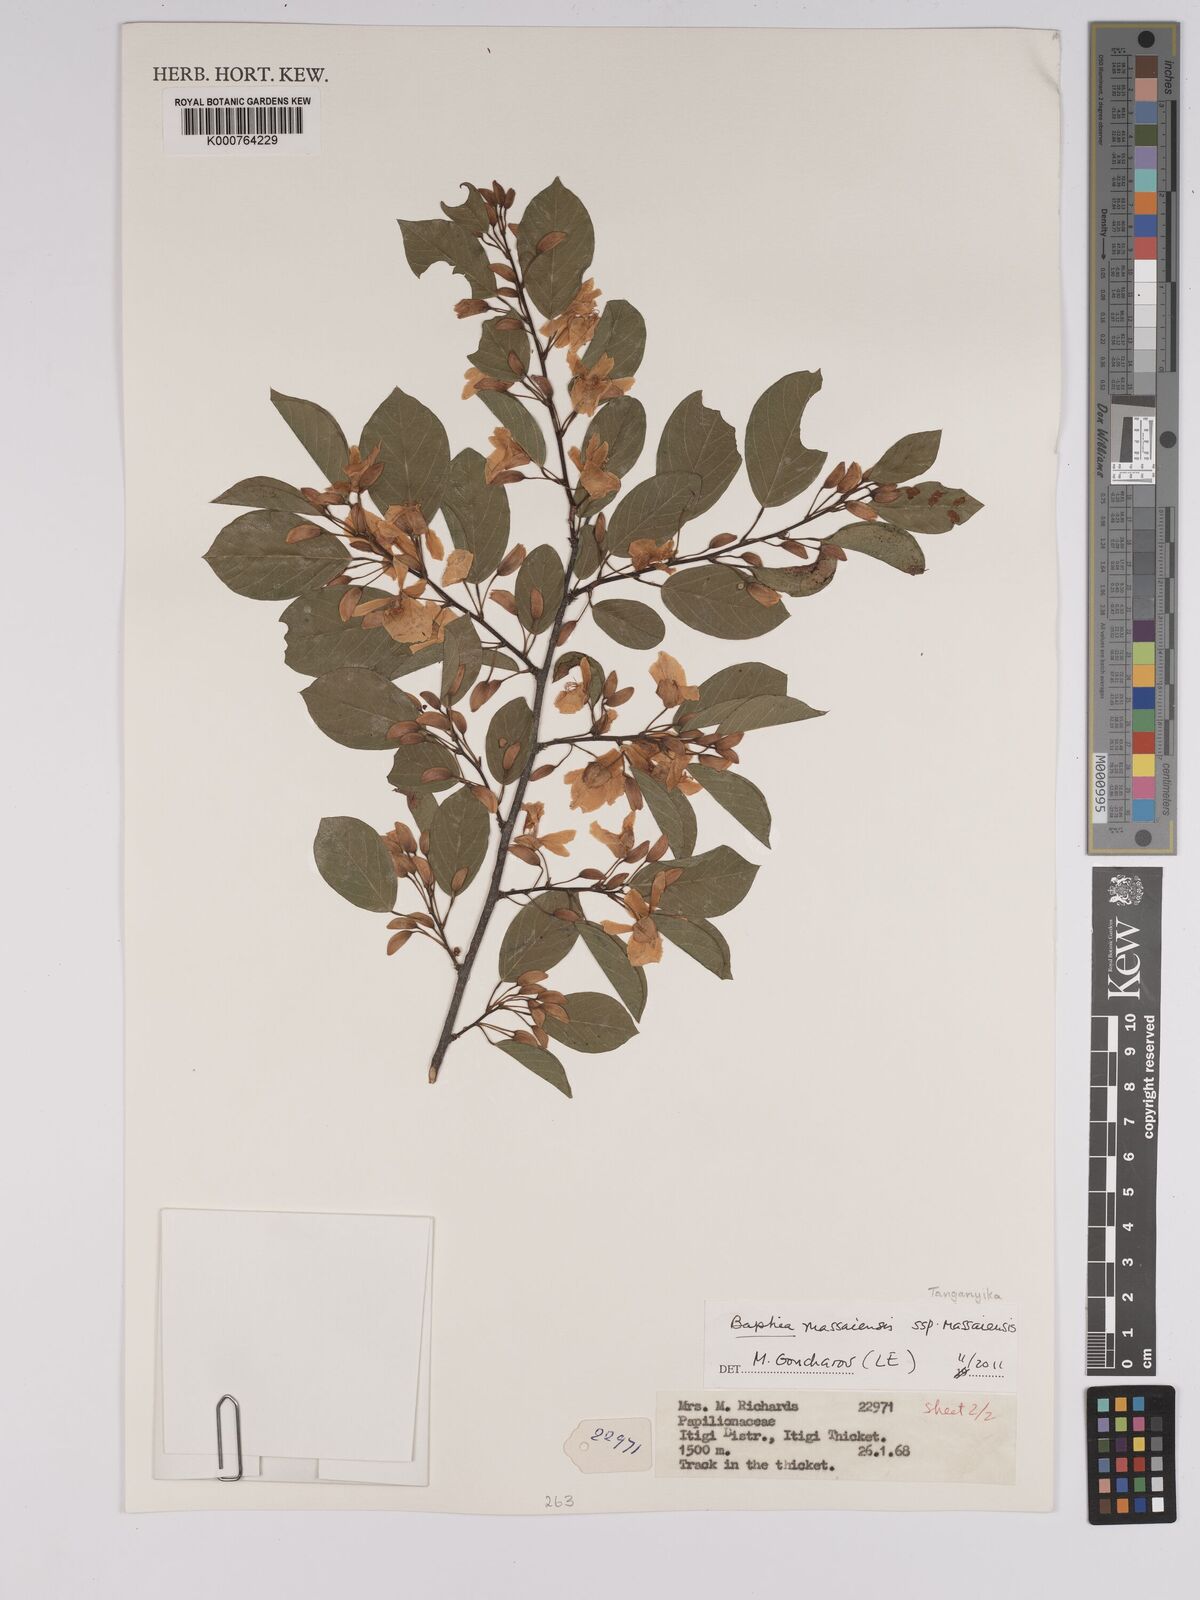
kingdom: Plantae
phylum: Tracheophyta
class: Magnoliopsida
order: Fabales
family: Fabaceae
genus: Baphia
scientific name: Baphia massaiensis
